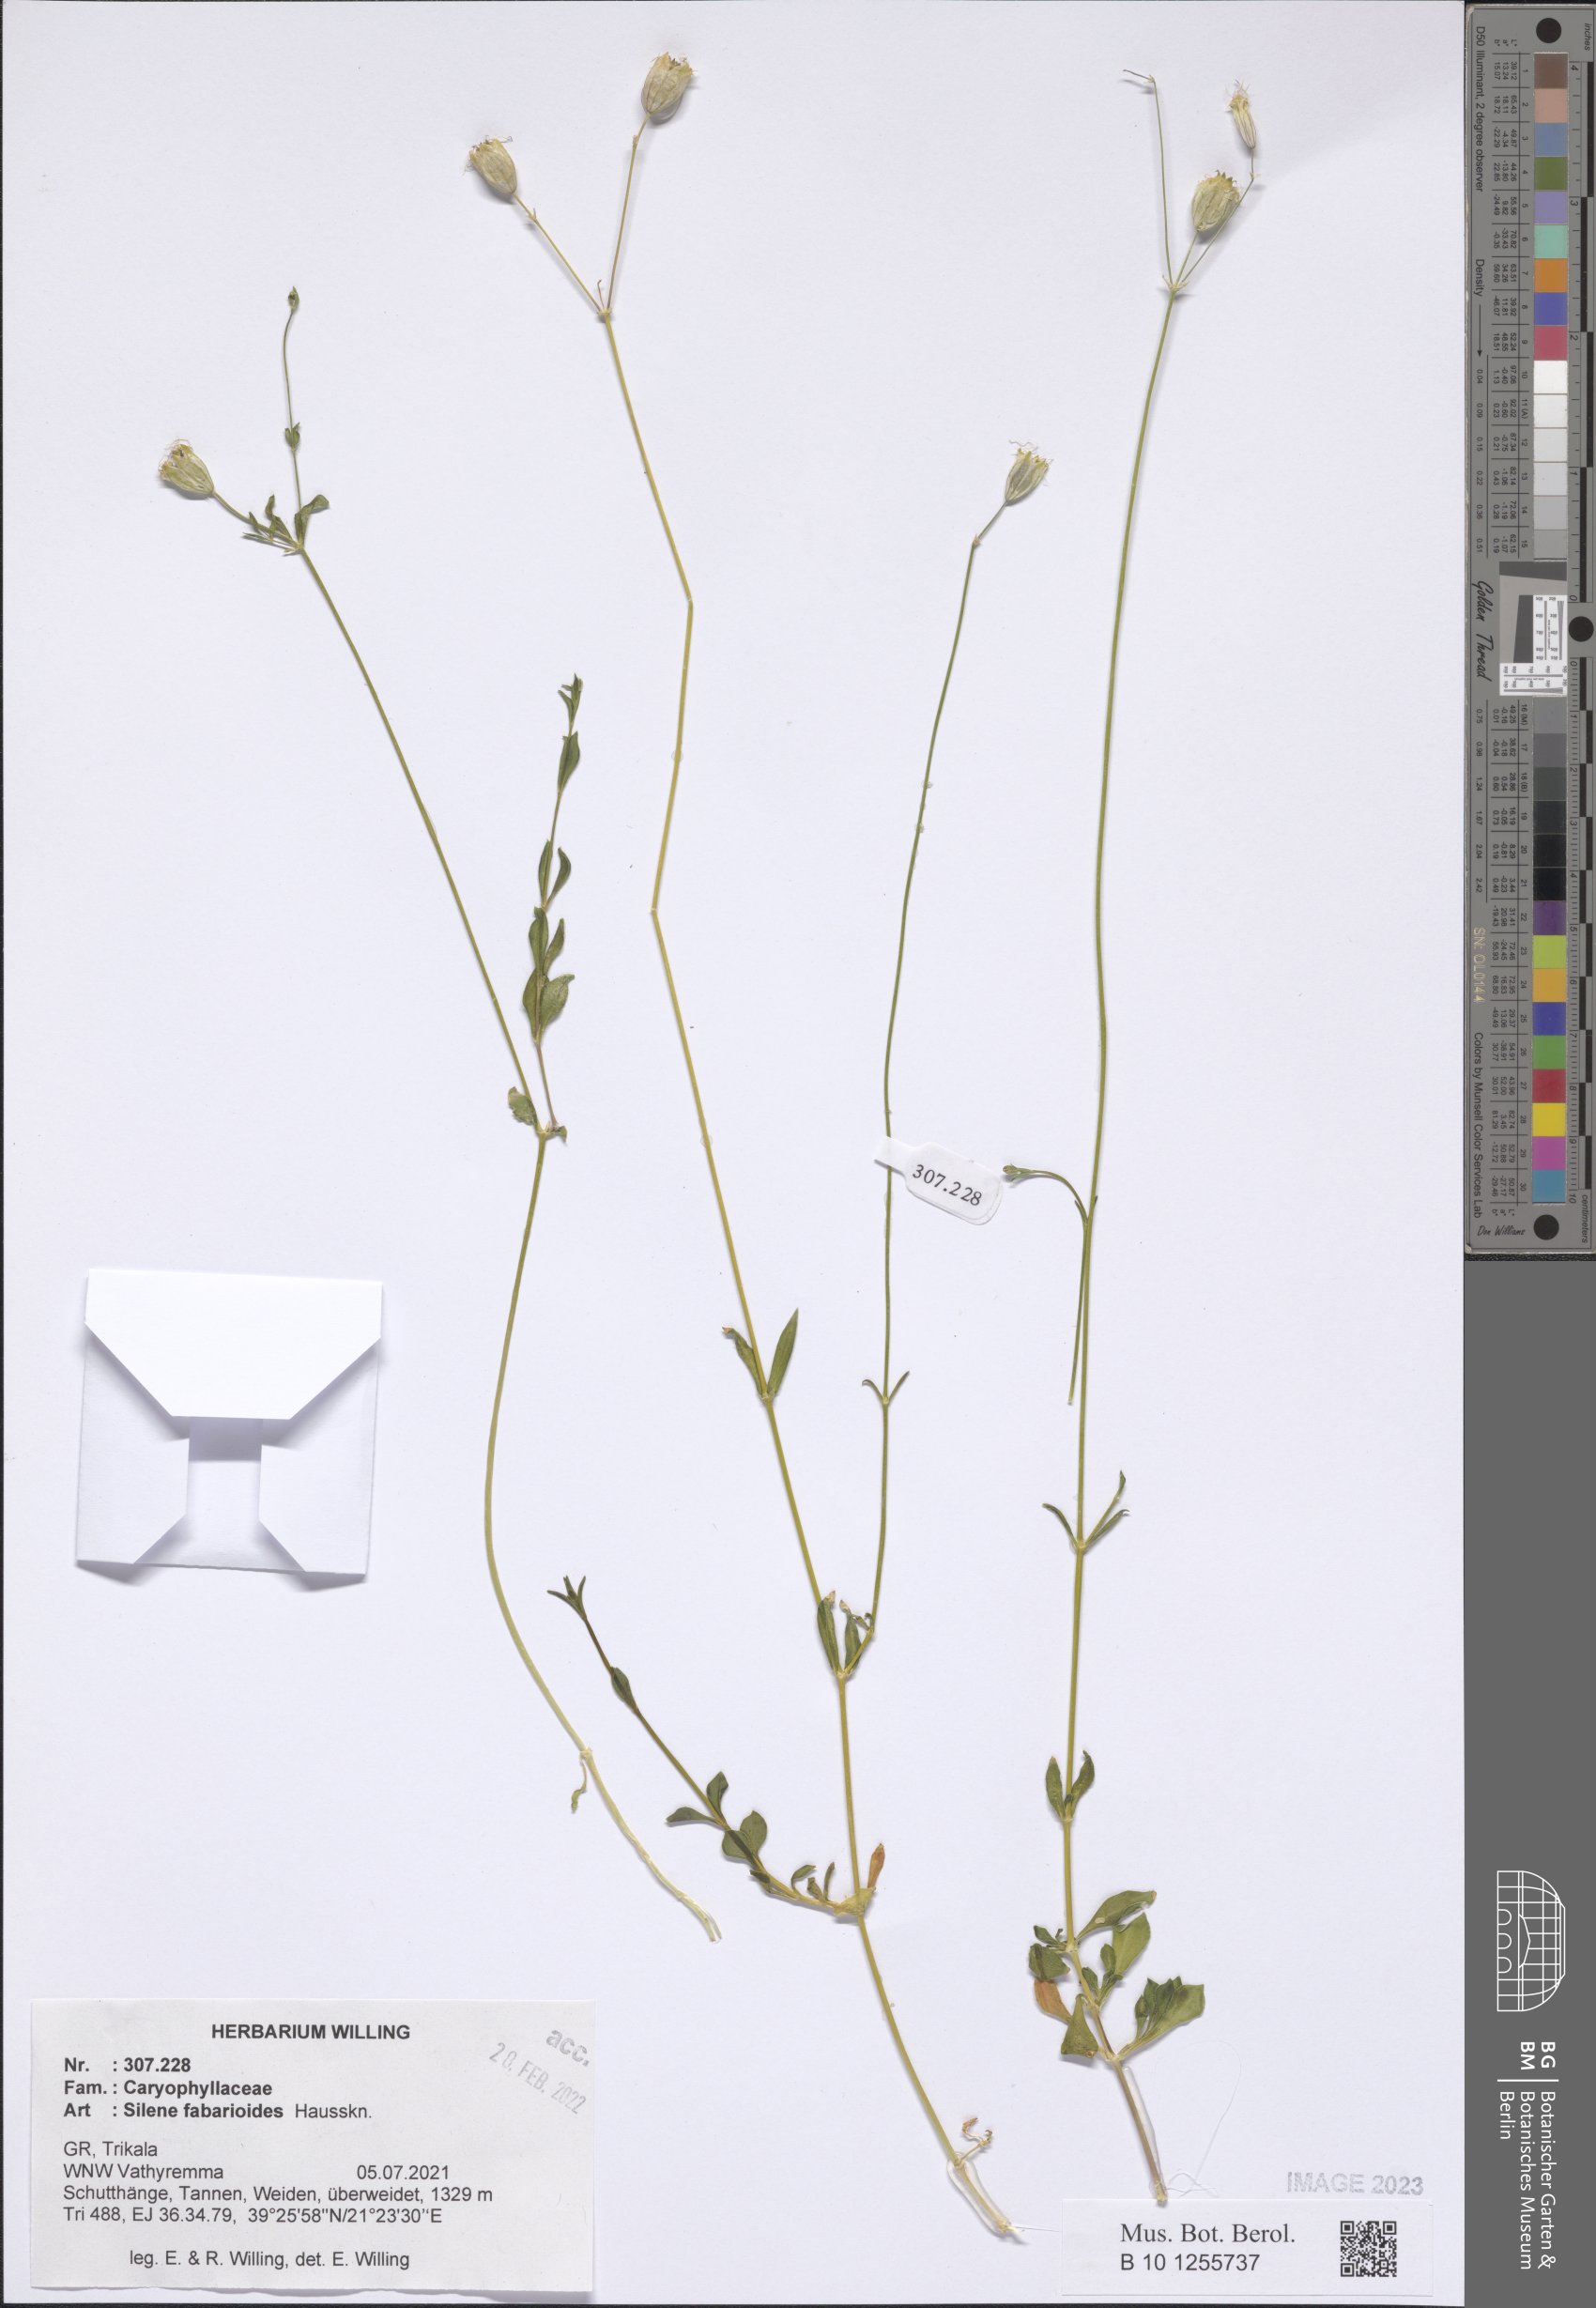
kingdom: Plantae
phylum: Tracheophyta
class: Magnoliopsida
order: Caryophyllales
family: Caryophyllaceae
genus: Silene
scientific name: Silene fabarioides
